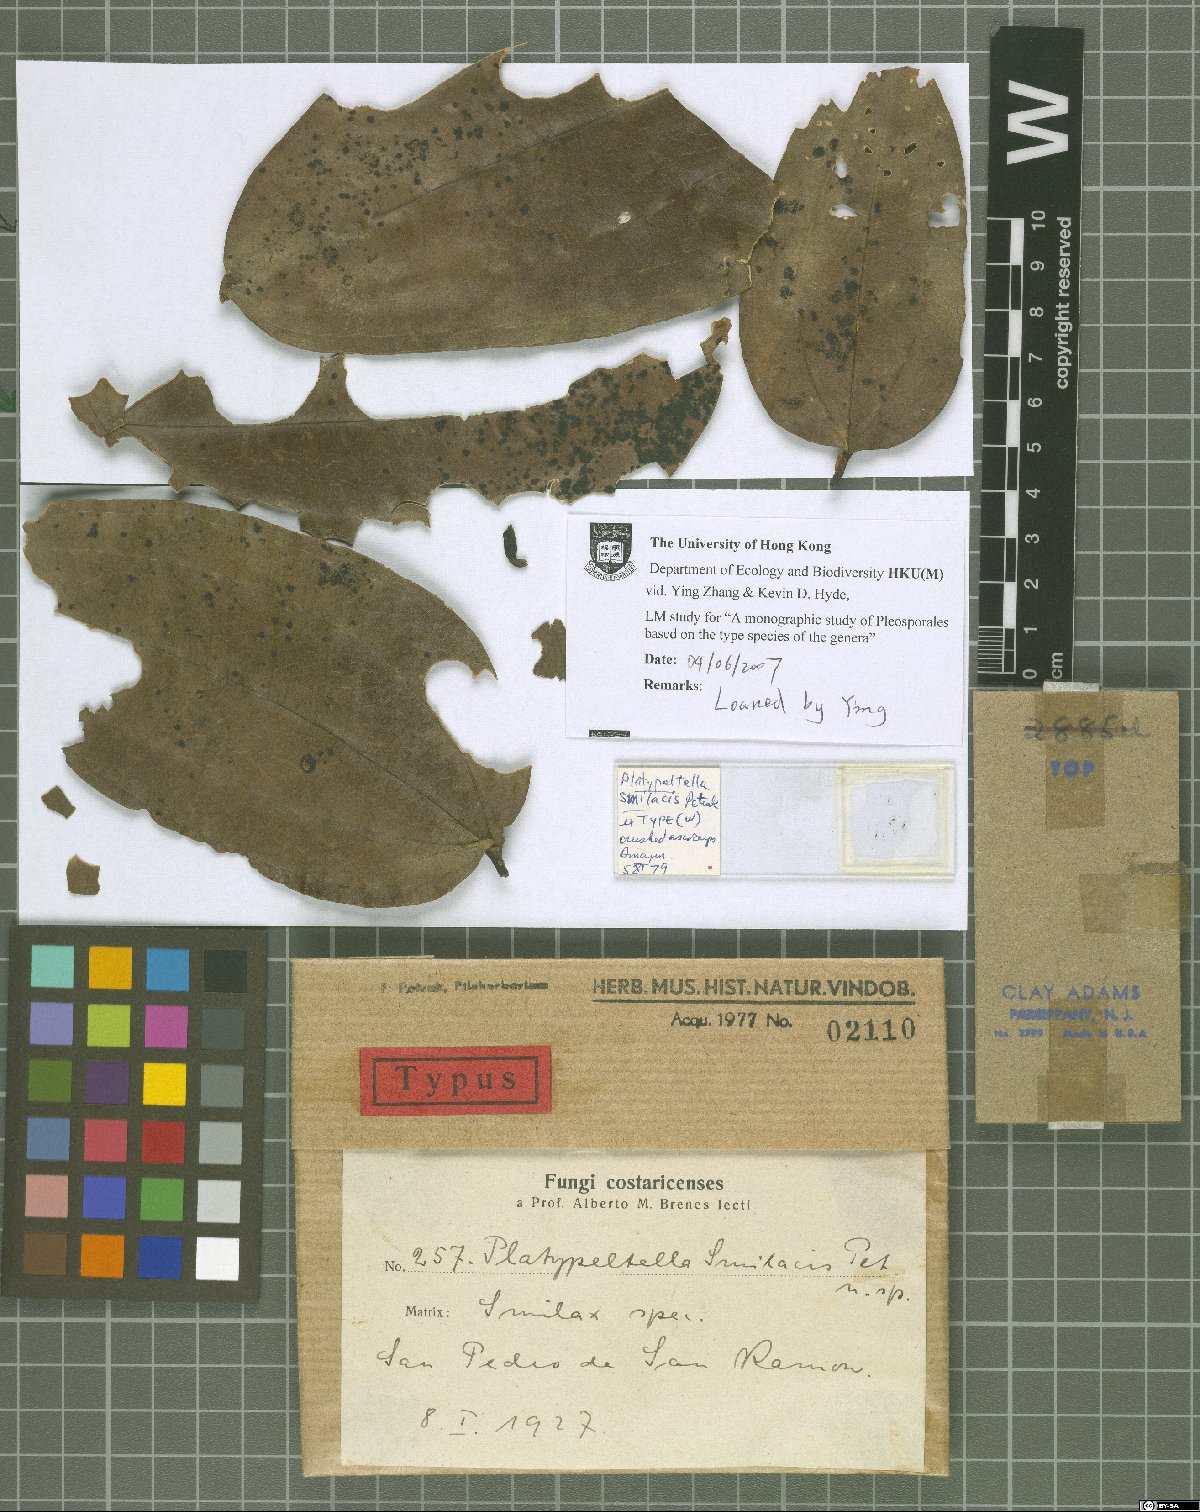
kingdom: Fungi
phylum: Ascomycota
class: Dothideomycetes
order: Microthyriales
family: Microthyriaceae
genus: Platypeltella
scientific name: Platypeltella smilacis
